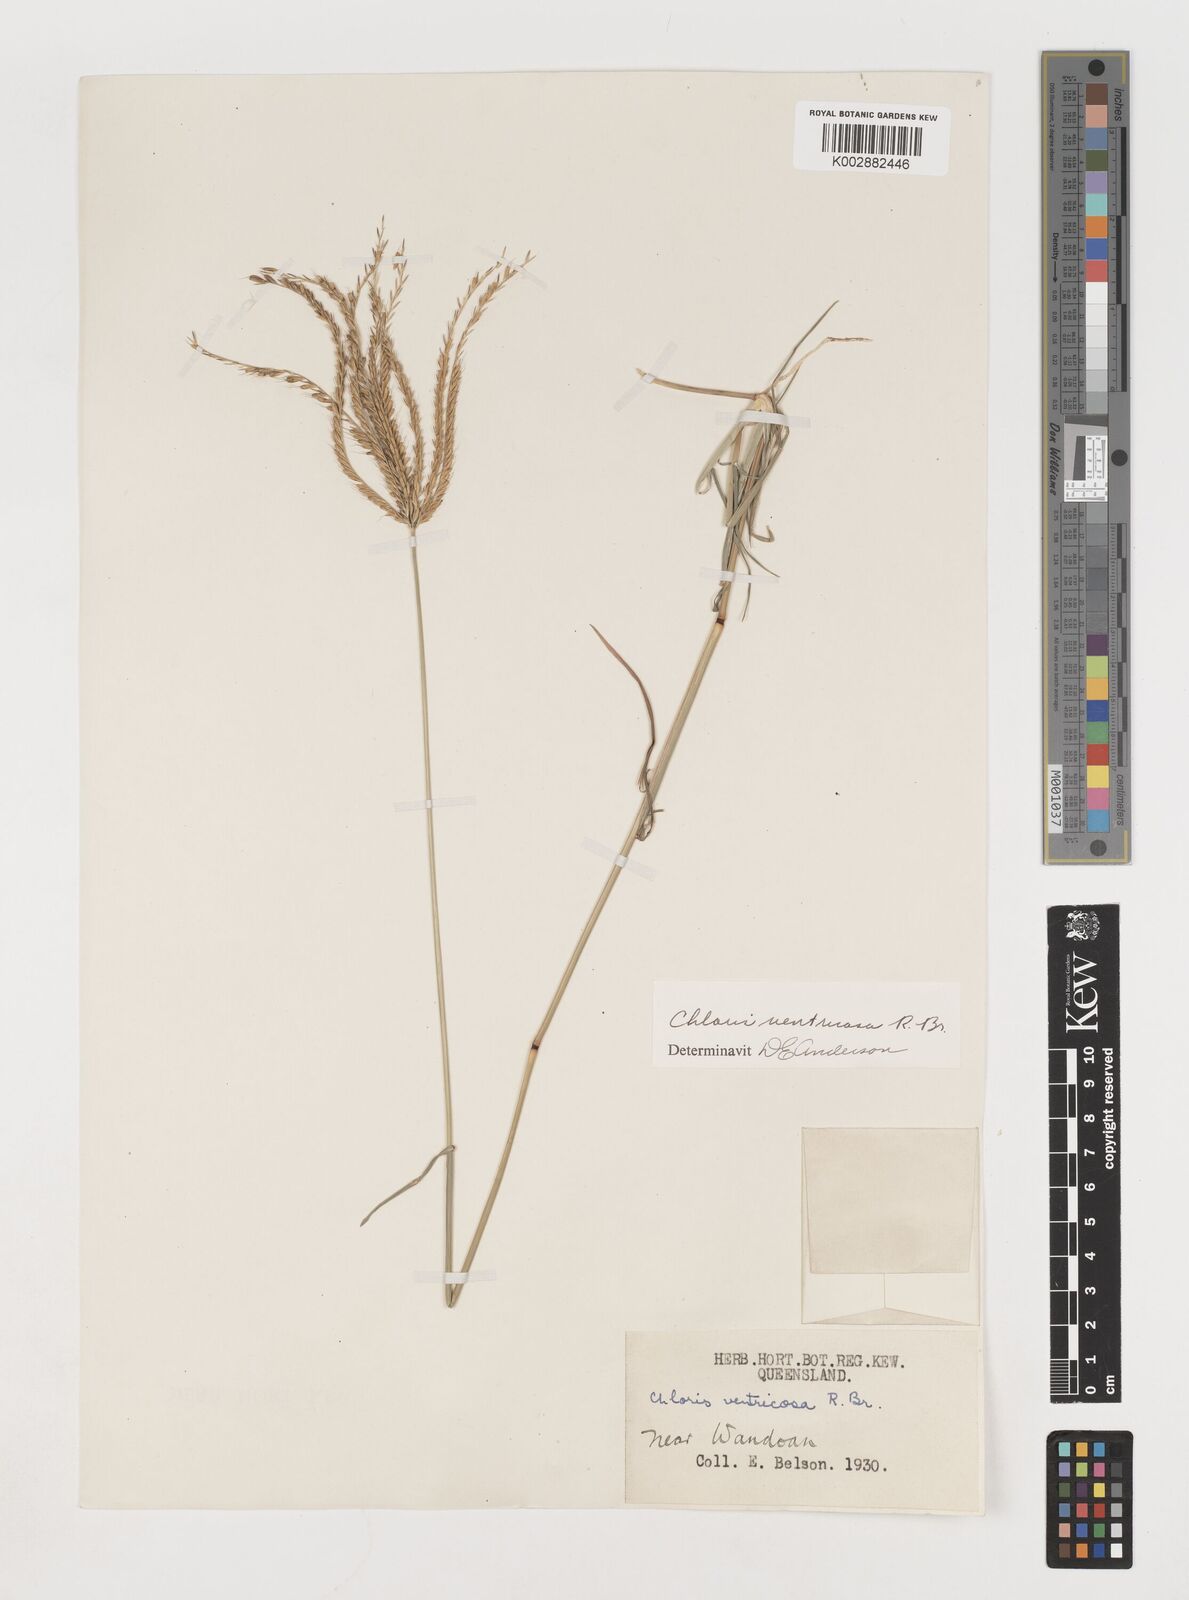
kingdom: Plantae
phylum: Tracheophyta
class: Liliopsida
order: Poales
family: Poaceae
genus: Chloris
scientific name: Chloris ventricosa
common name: Australian windmill grass
